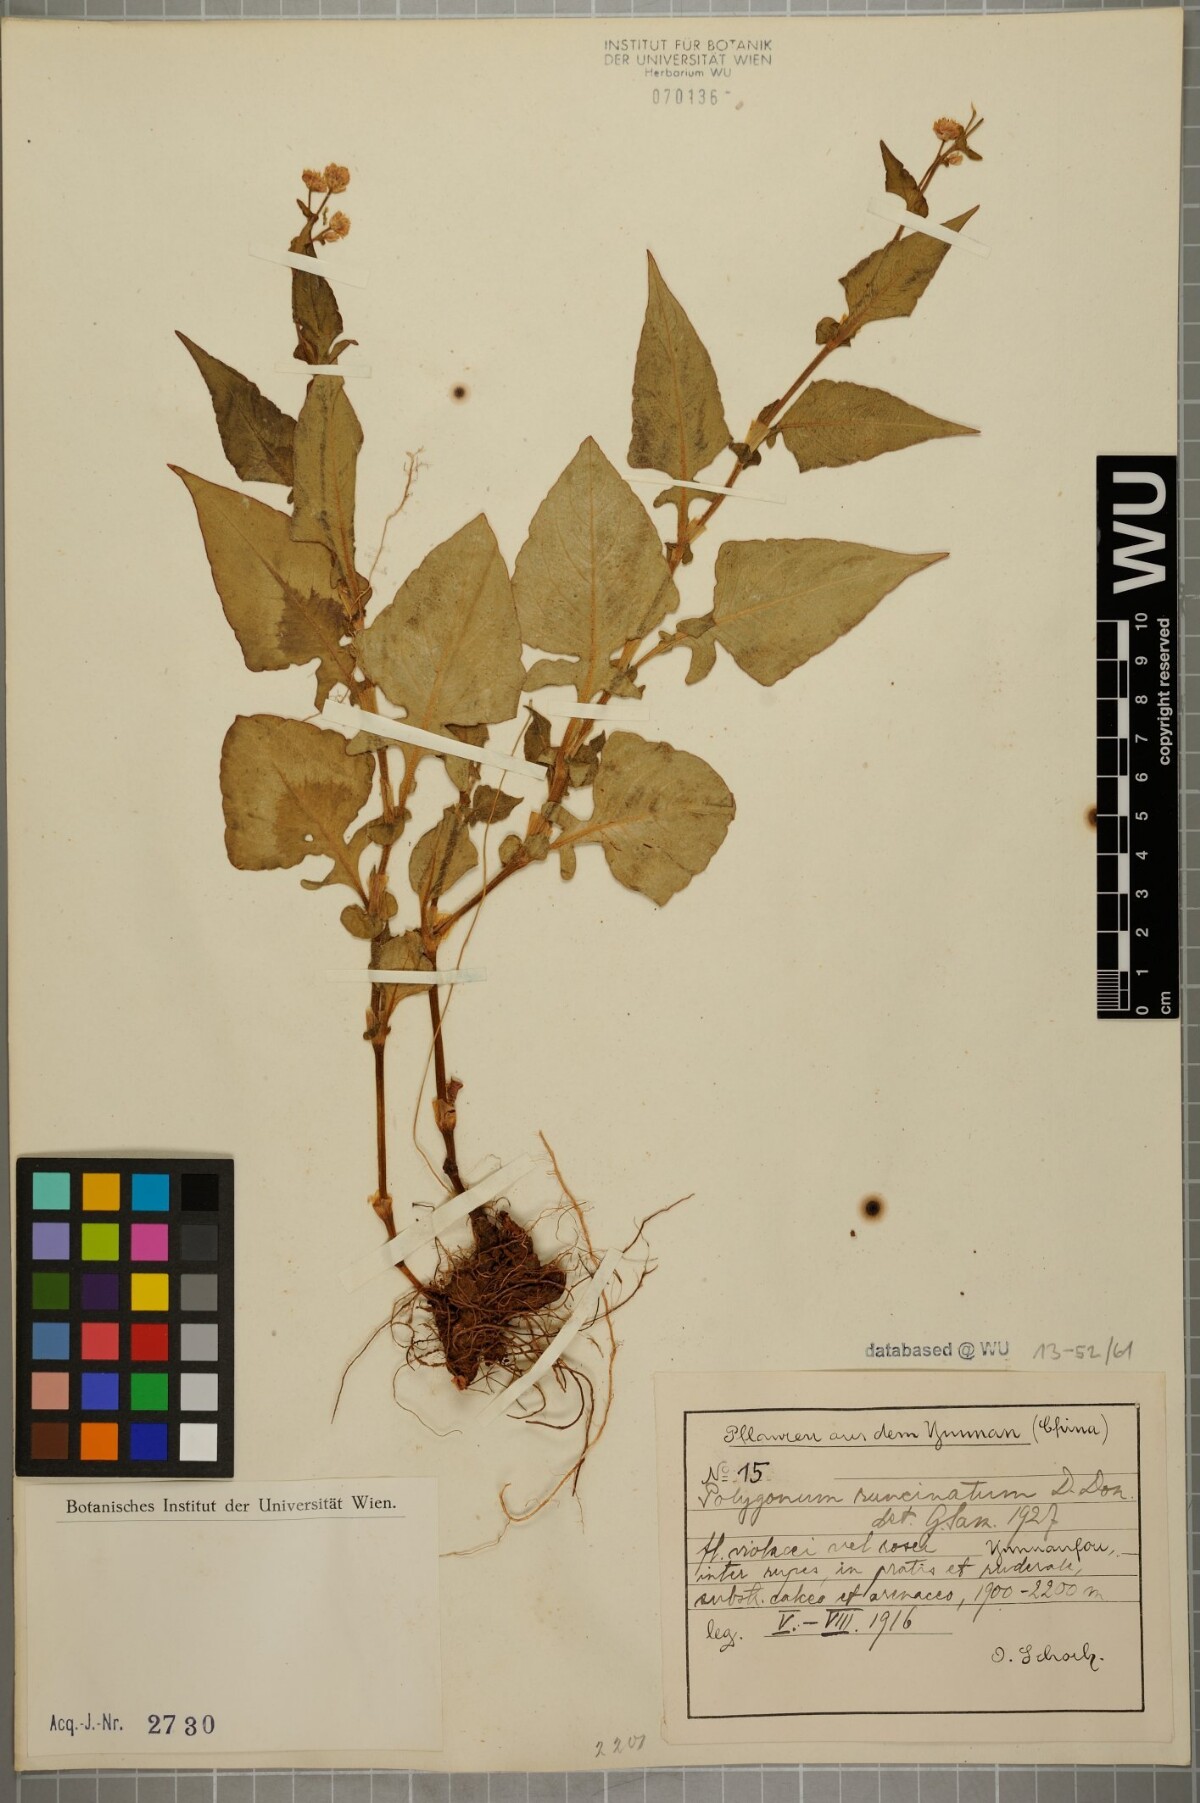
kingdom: Plantae
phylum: Tracheophyta
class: Magnoliopsida
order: Caryophyllales
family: Polygonaceae
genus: Persicaria
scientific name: Persicaria runcinata
